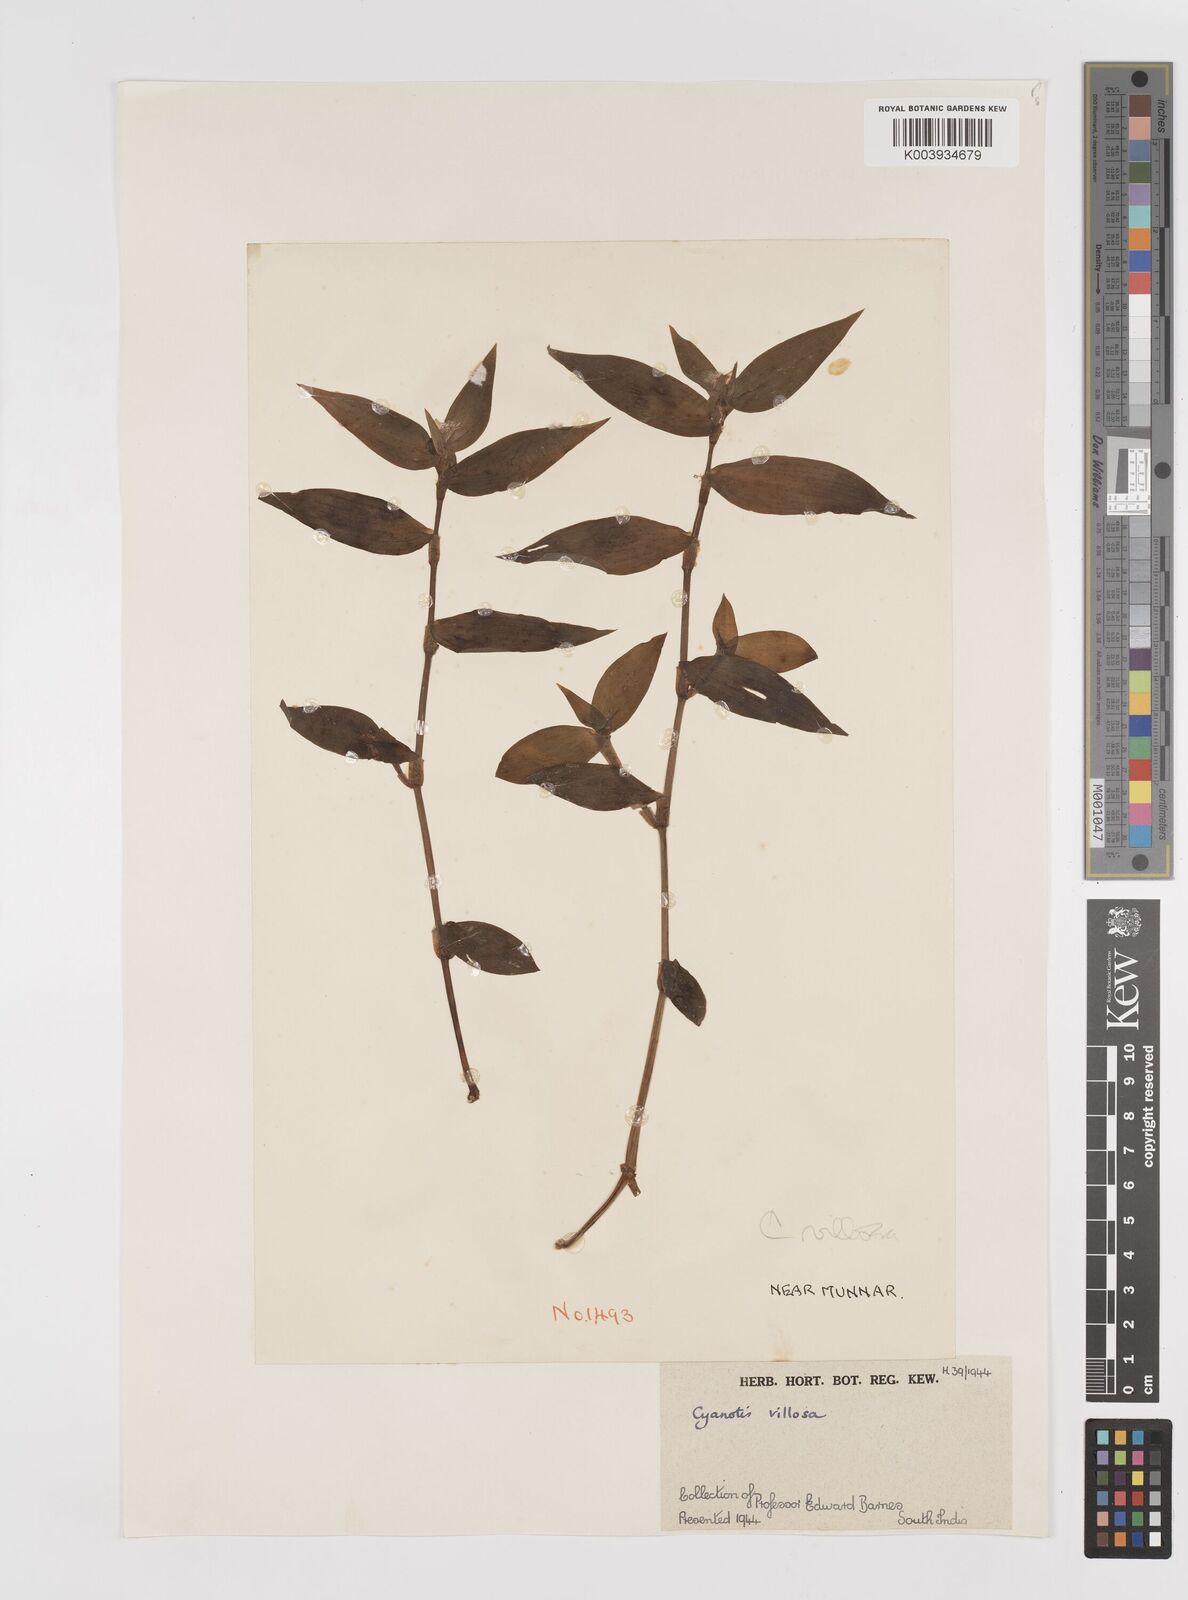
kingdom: Plantae
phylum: Tracheophyta
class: Liliopsida
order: Commelinales
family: Commelinaceae
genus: Cyanotis
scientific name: Cyanotis villosa
